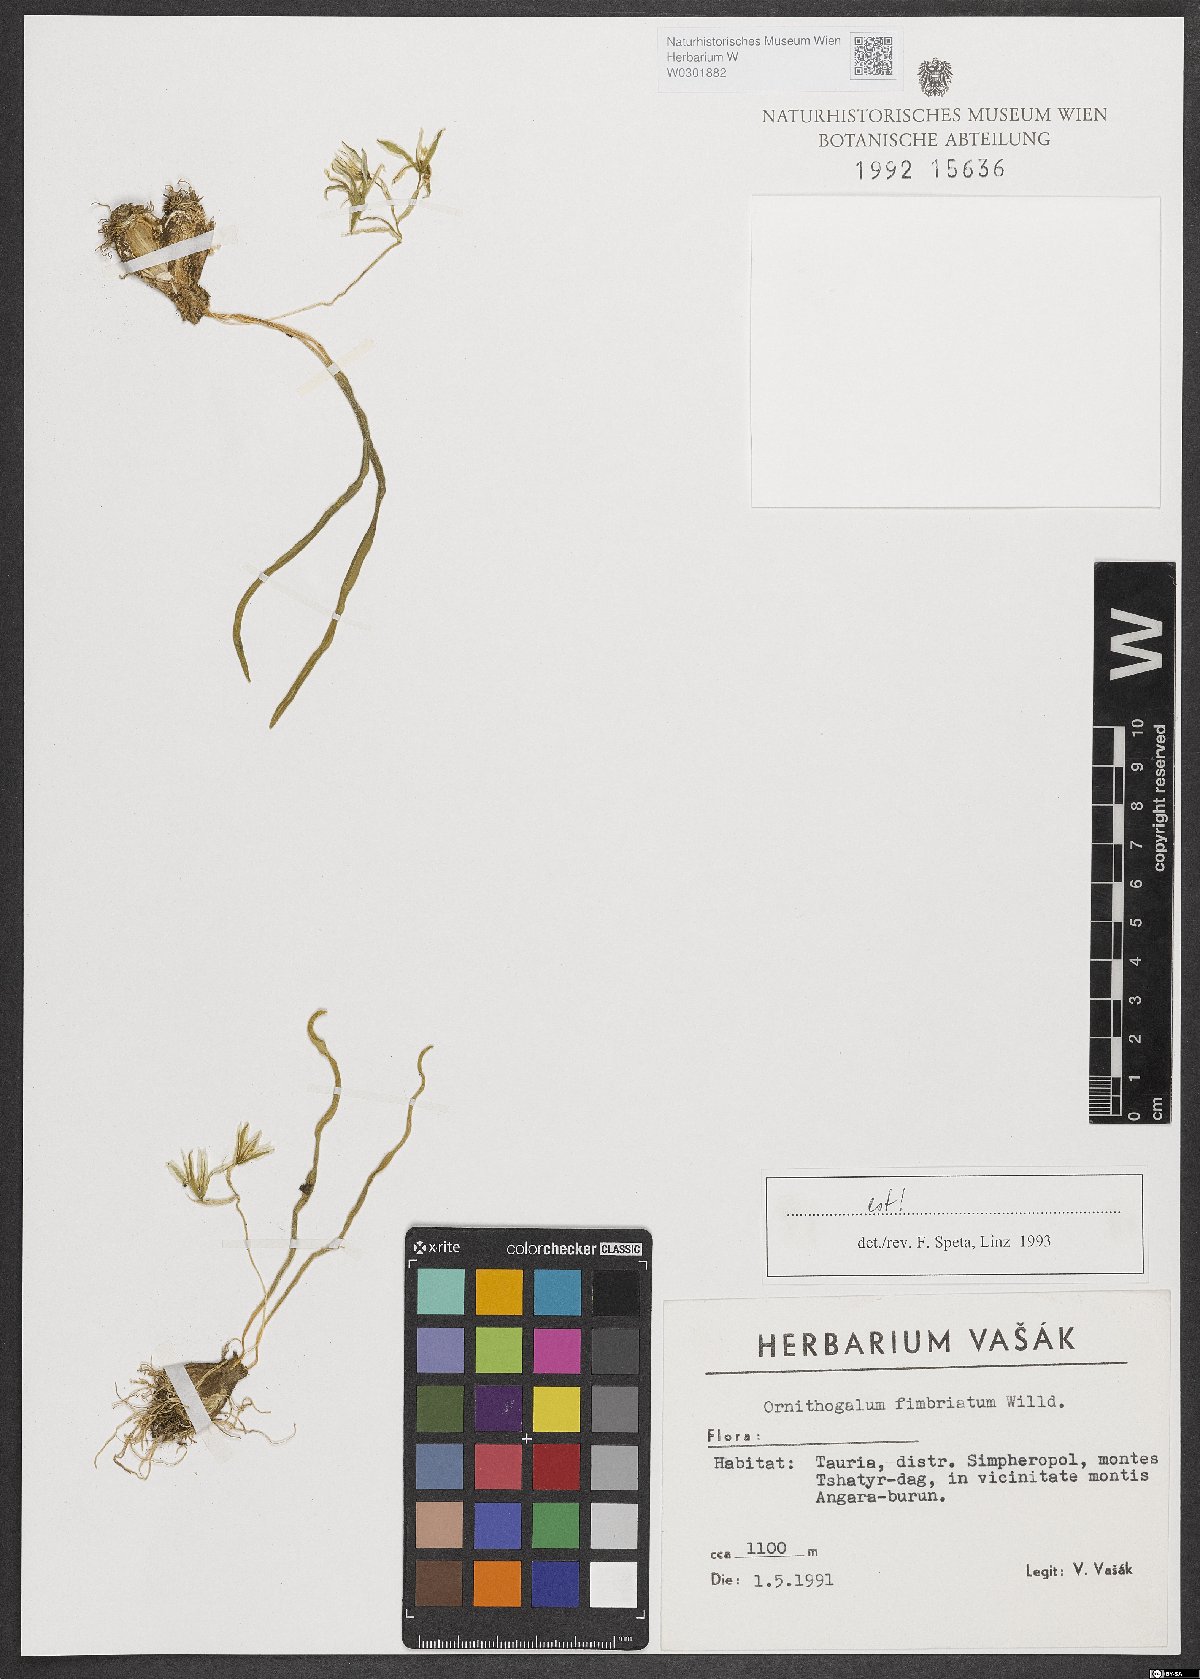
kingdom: Plantae
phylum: Tracheophyta
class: Liliopsida
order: Asparagales
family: Asparagaceae
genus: Ornithogalum
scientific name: Ornithogalum fimbriatum
